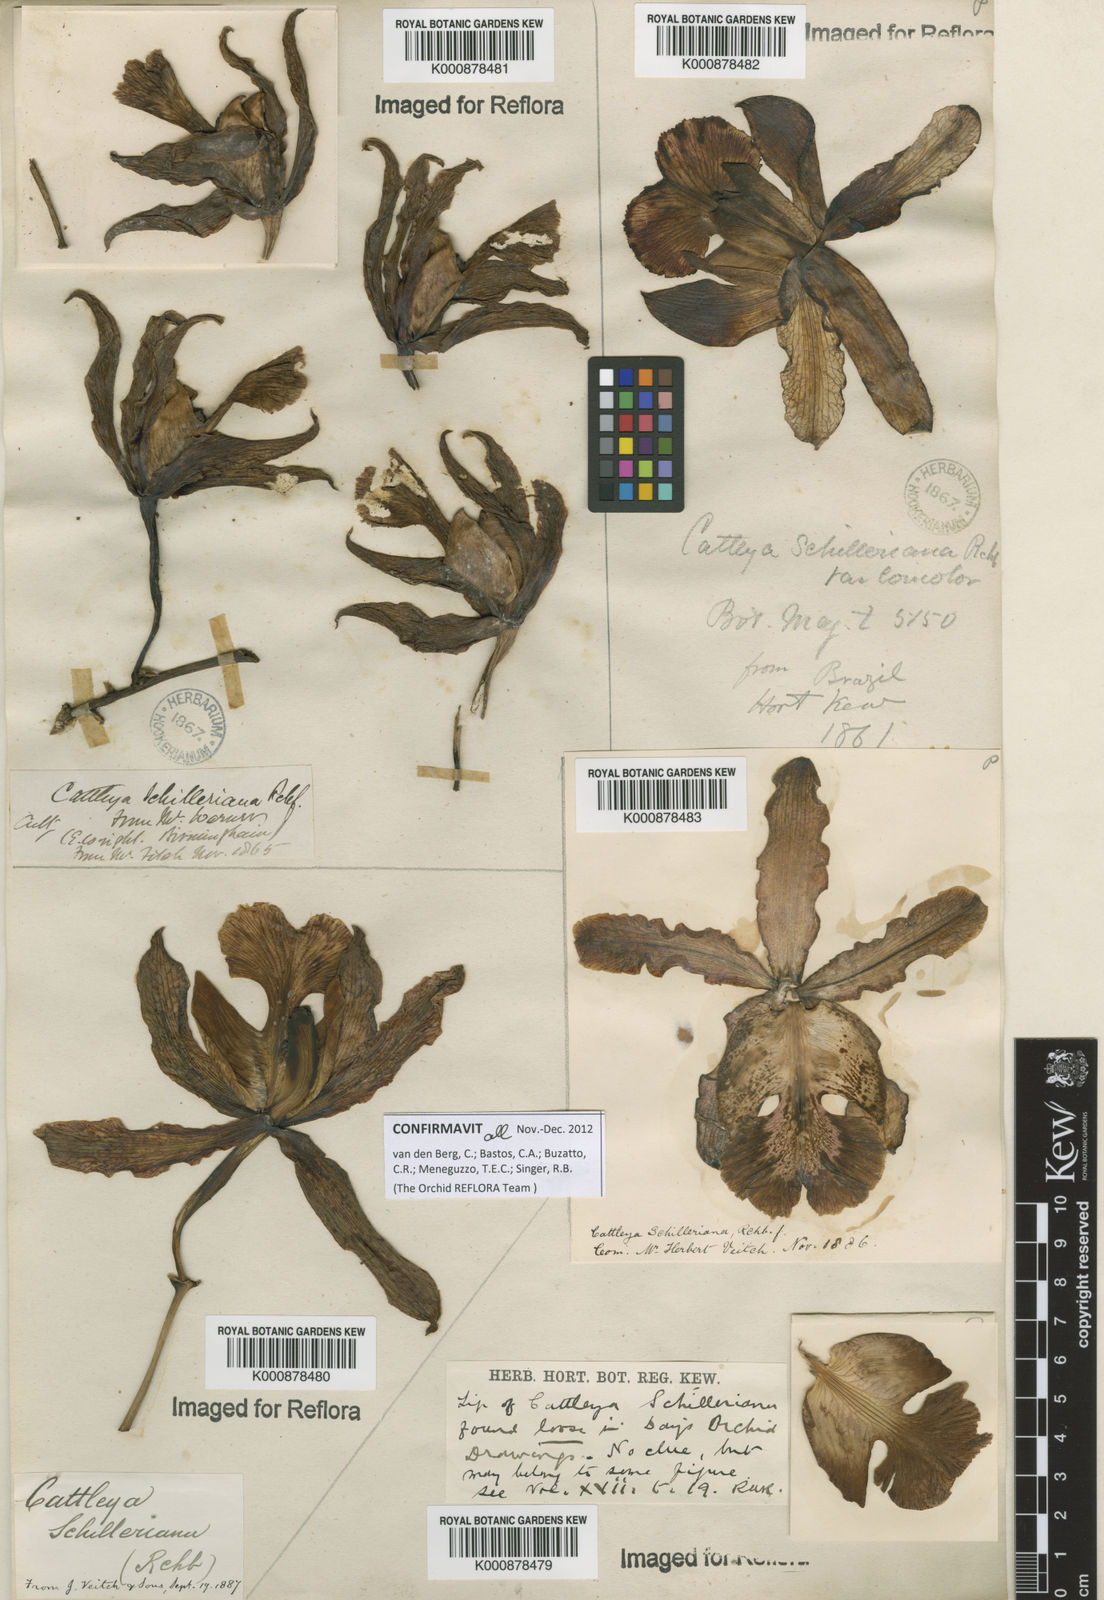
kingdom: Plantae
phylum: Tracheophyta
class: Liliopsida
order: Asparagales
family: Orchidaceae
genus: Cattleya
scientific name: Cattleya
